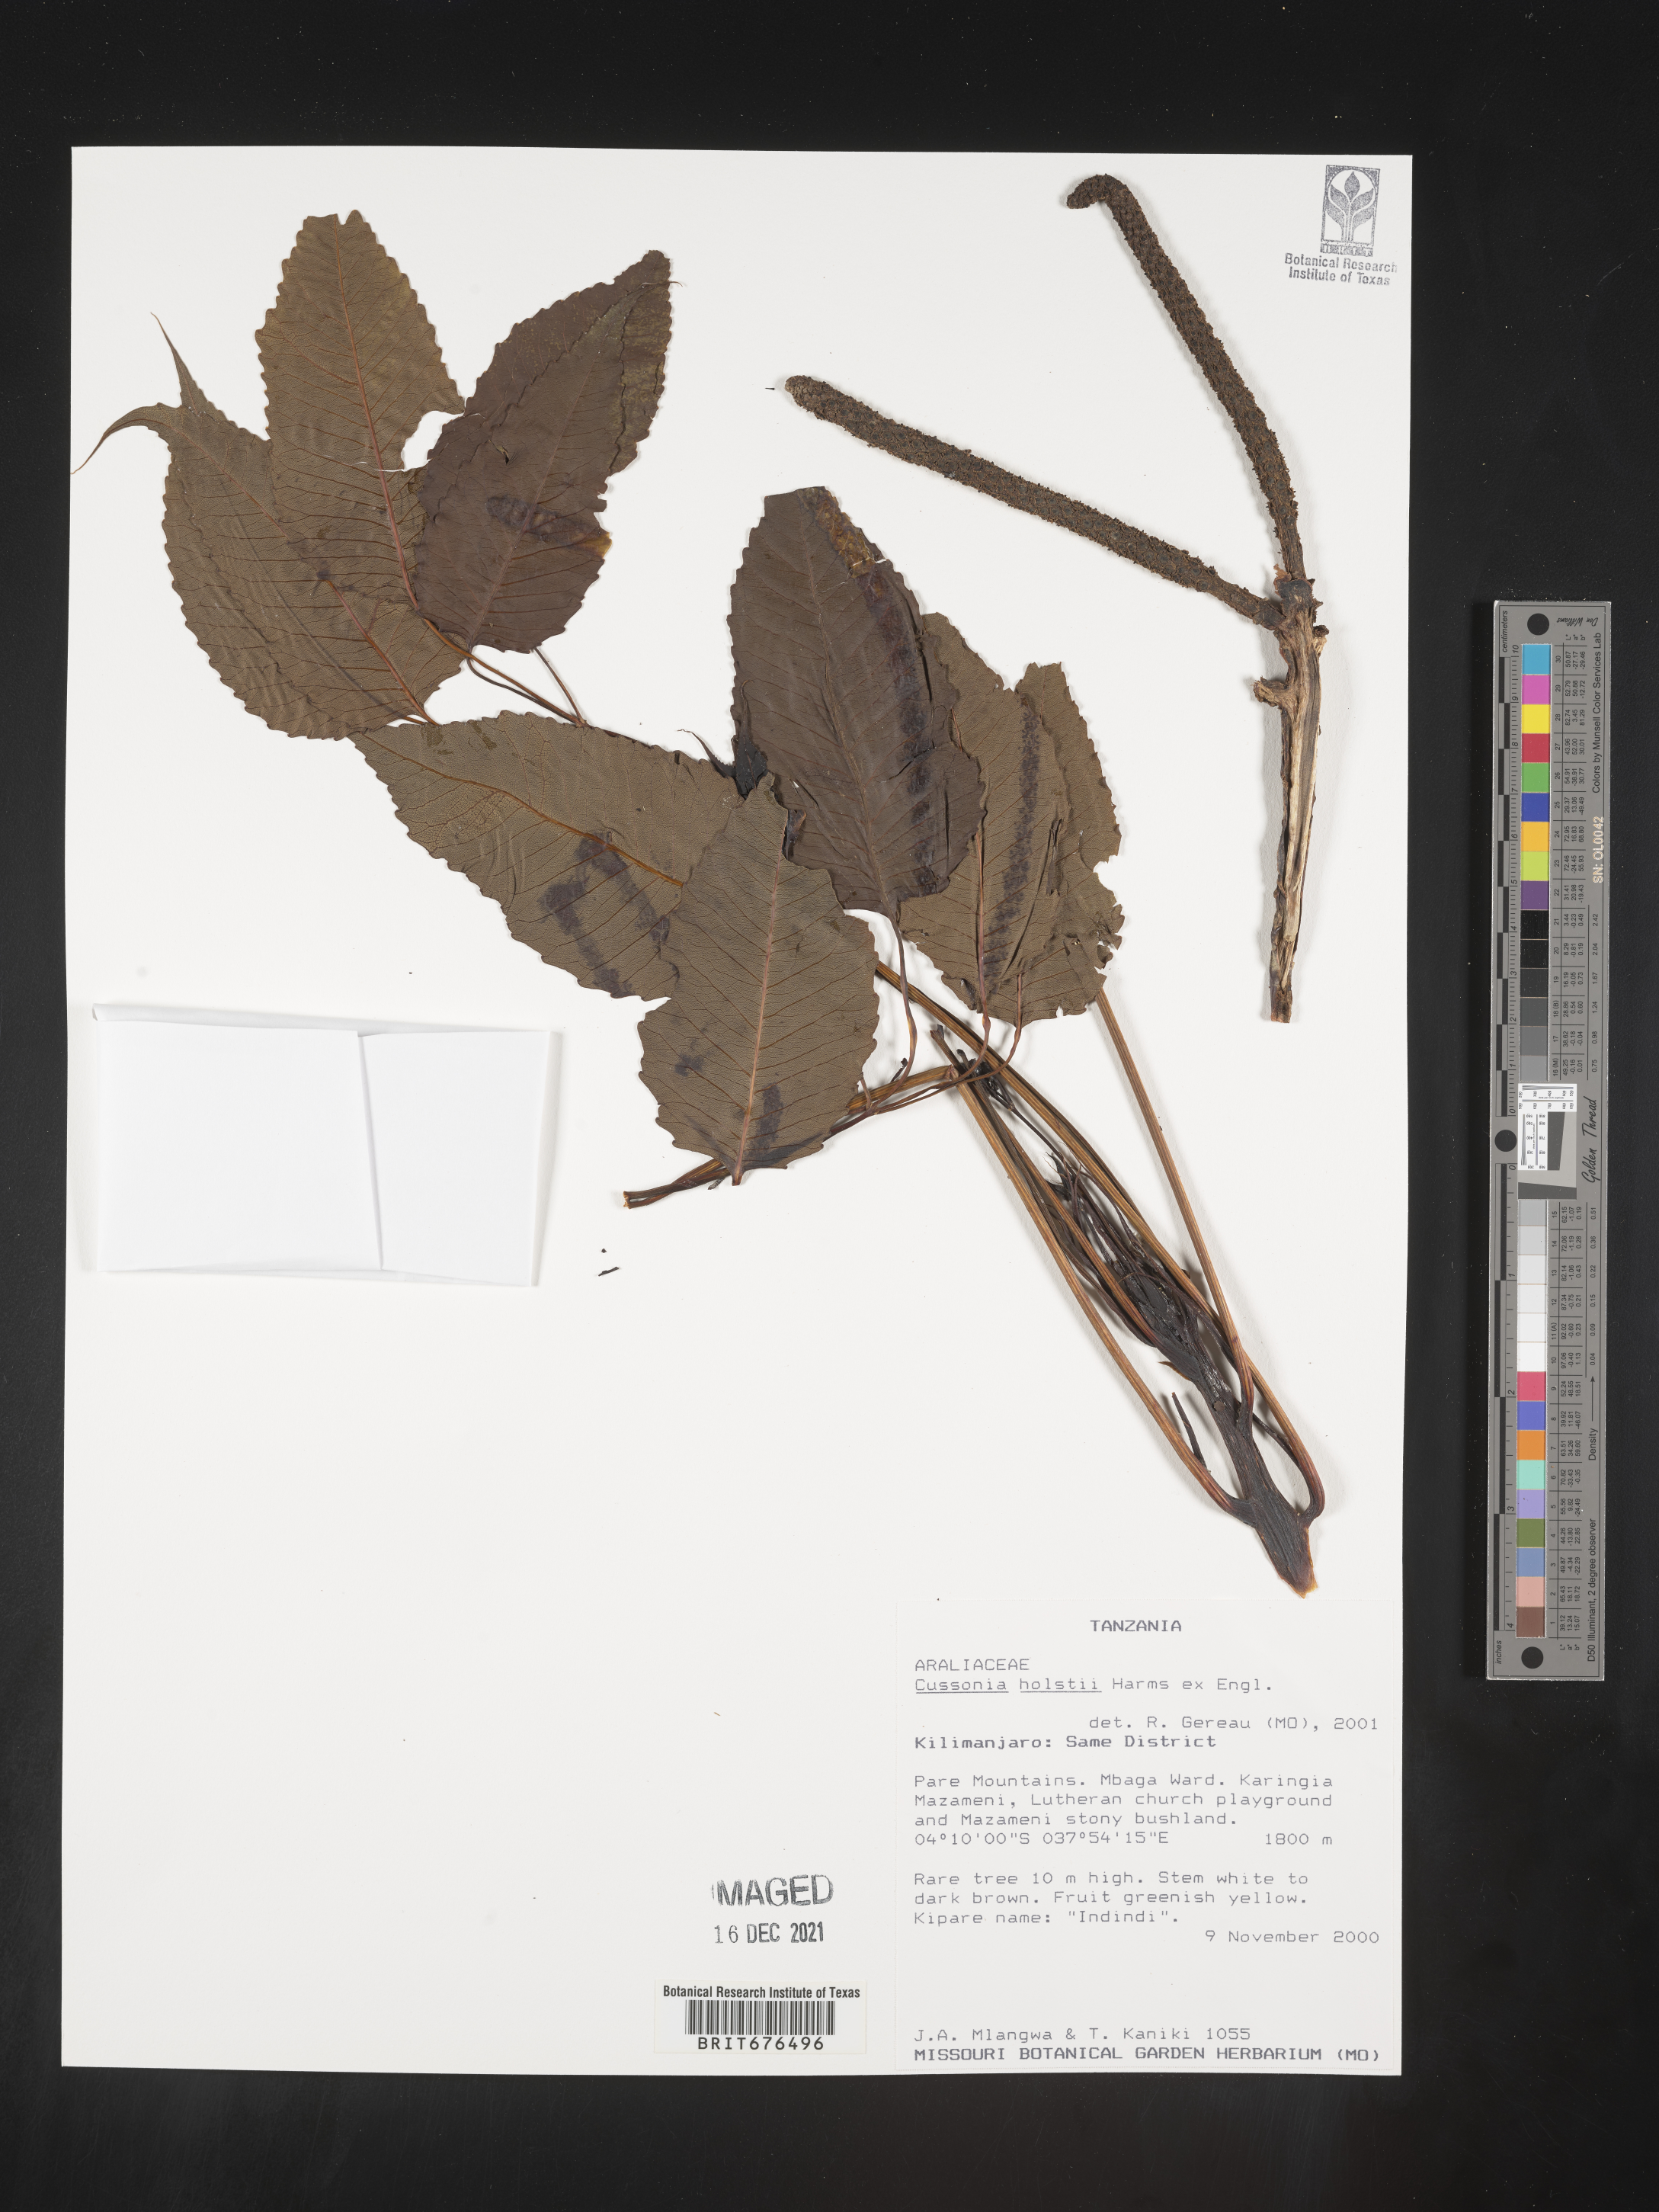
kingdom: Plantae
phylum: Tracheophyta
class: Magnoliopsida
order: Apiales
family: Araliaceae
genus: Cussonia
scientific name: Cussonia
